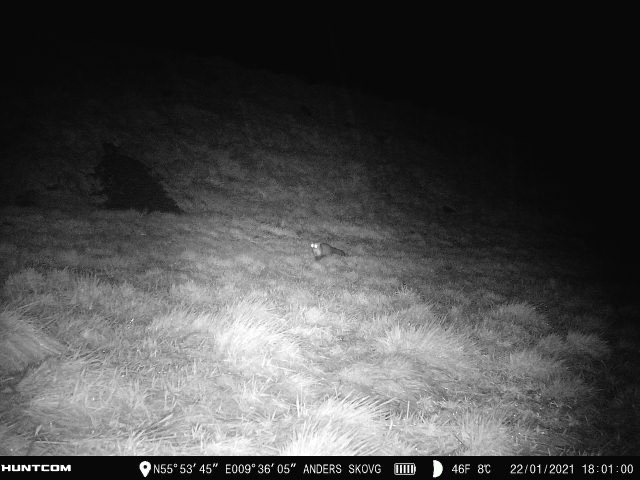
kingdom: Animalia
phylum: Chordata
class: Mammalia
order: Carnivora
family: Mustelidae
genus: Martes
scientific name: Martes foina
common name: Husmår
